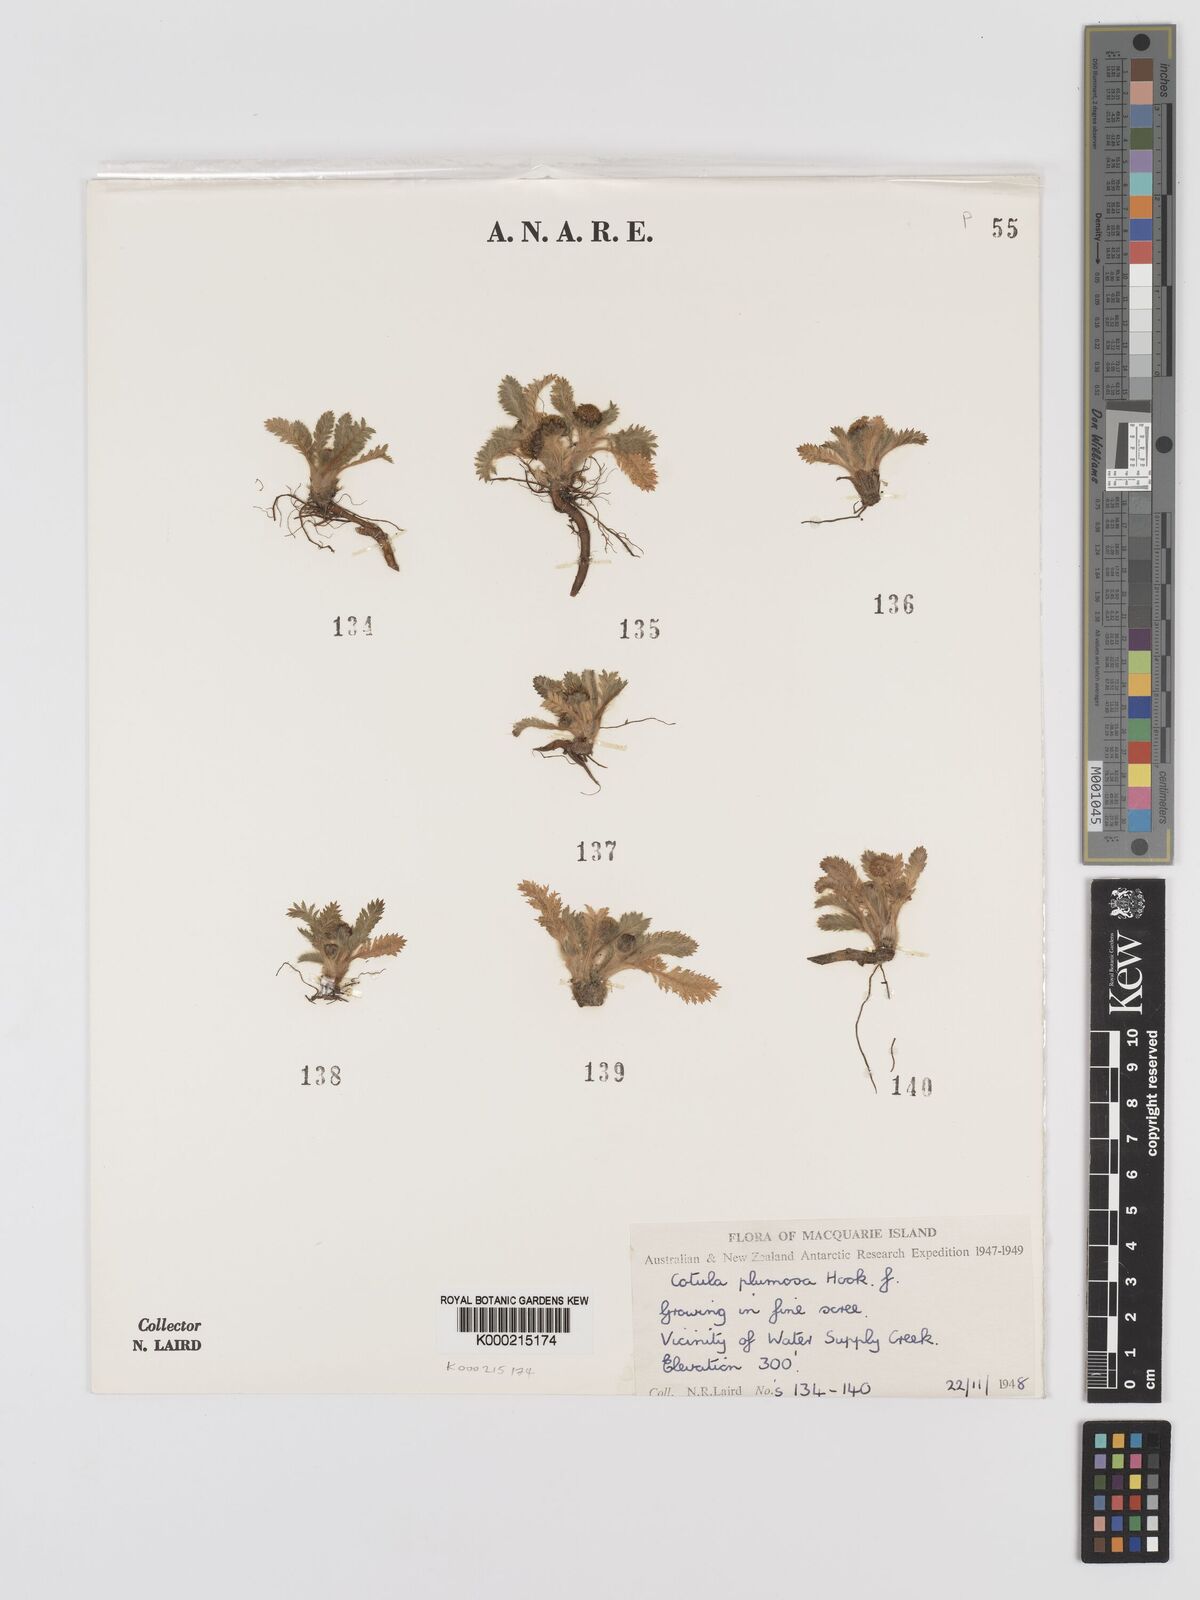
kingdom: Plantae
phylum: Tracheophyta
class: Magnoliopsida
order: Asterales
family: Asteraceae
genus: Leptinella
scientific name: Leptinella
